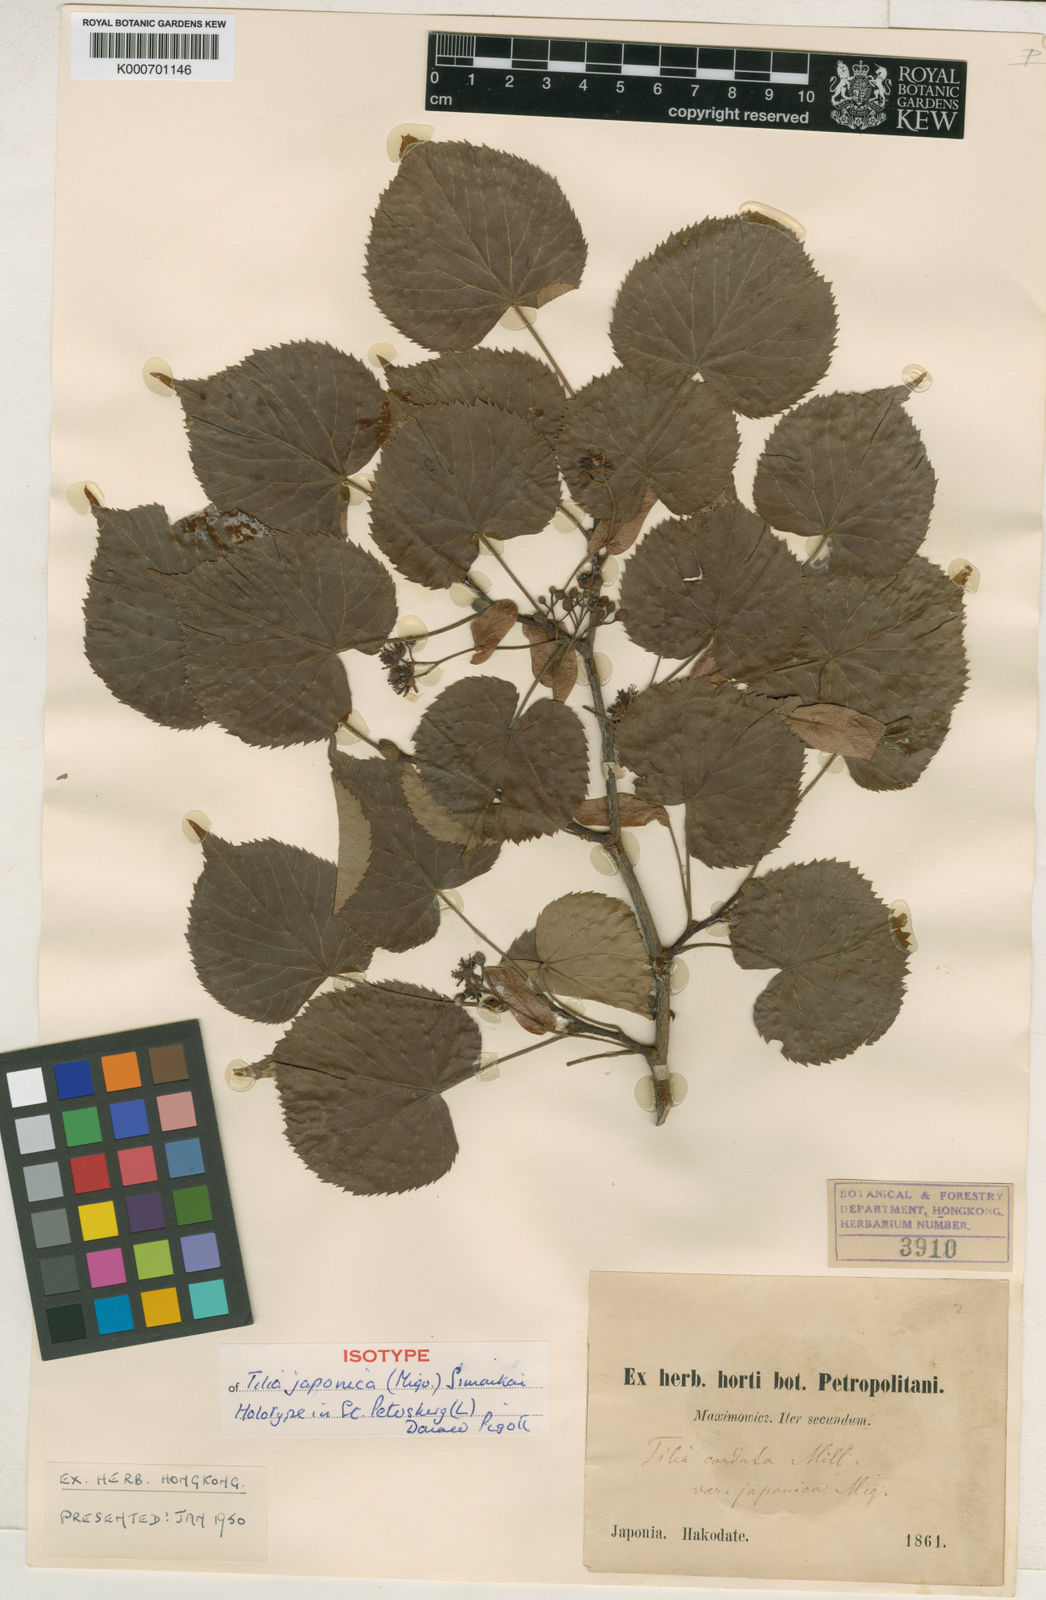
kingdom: Plantae
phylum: Tracheophyta
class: Magnoliopsida
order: Malvales
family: Malvaceae
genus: Tilia
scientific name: Tilia japonica
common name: Japanese lime
